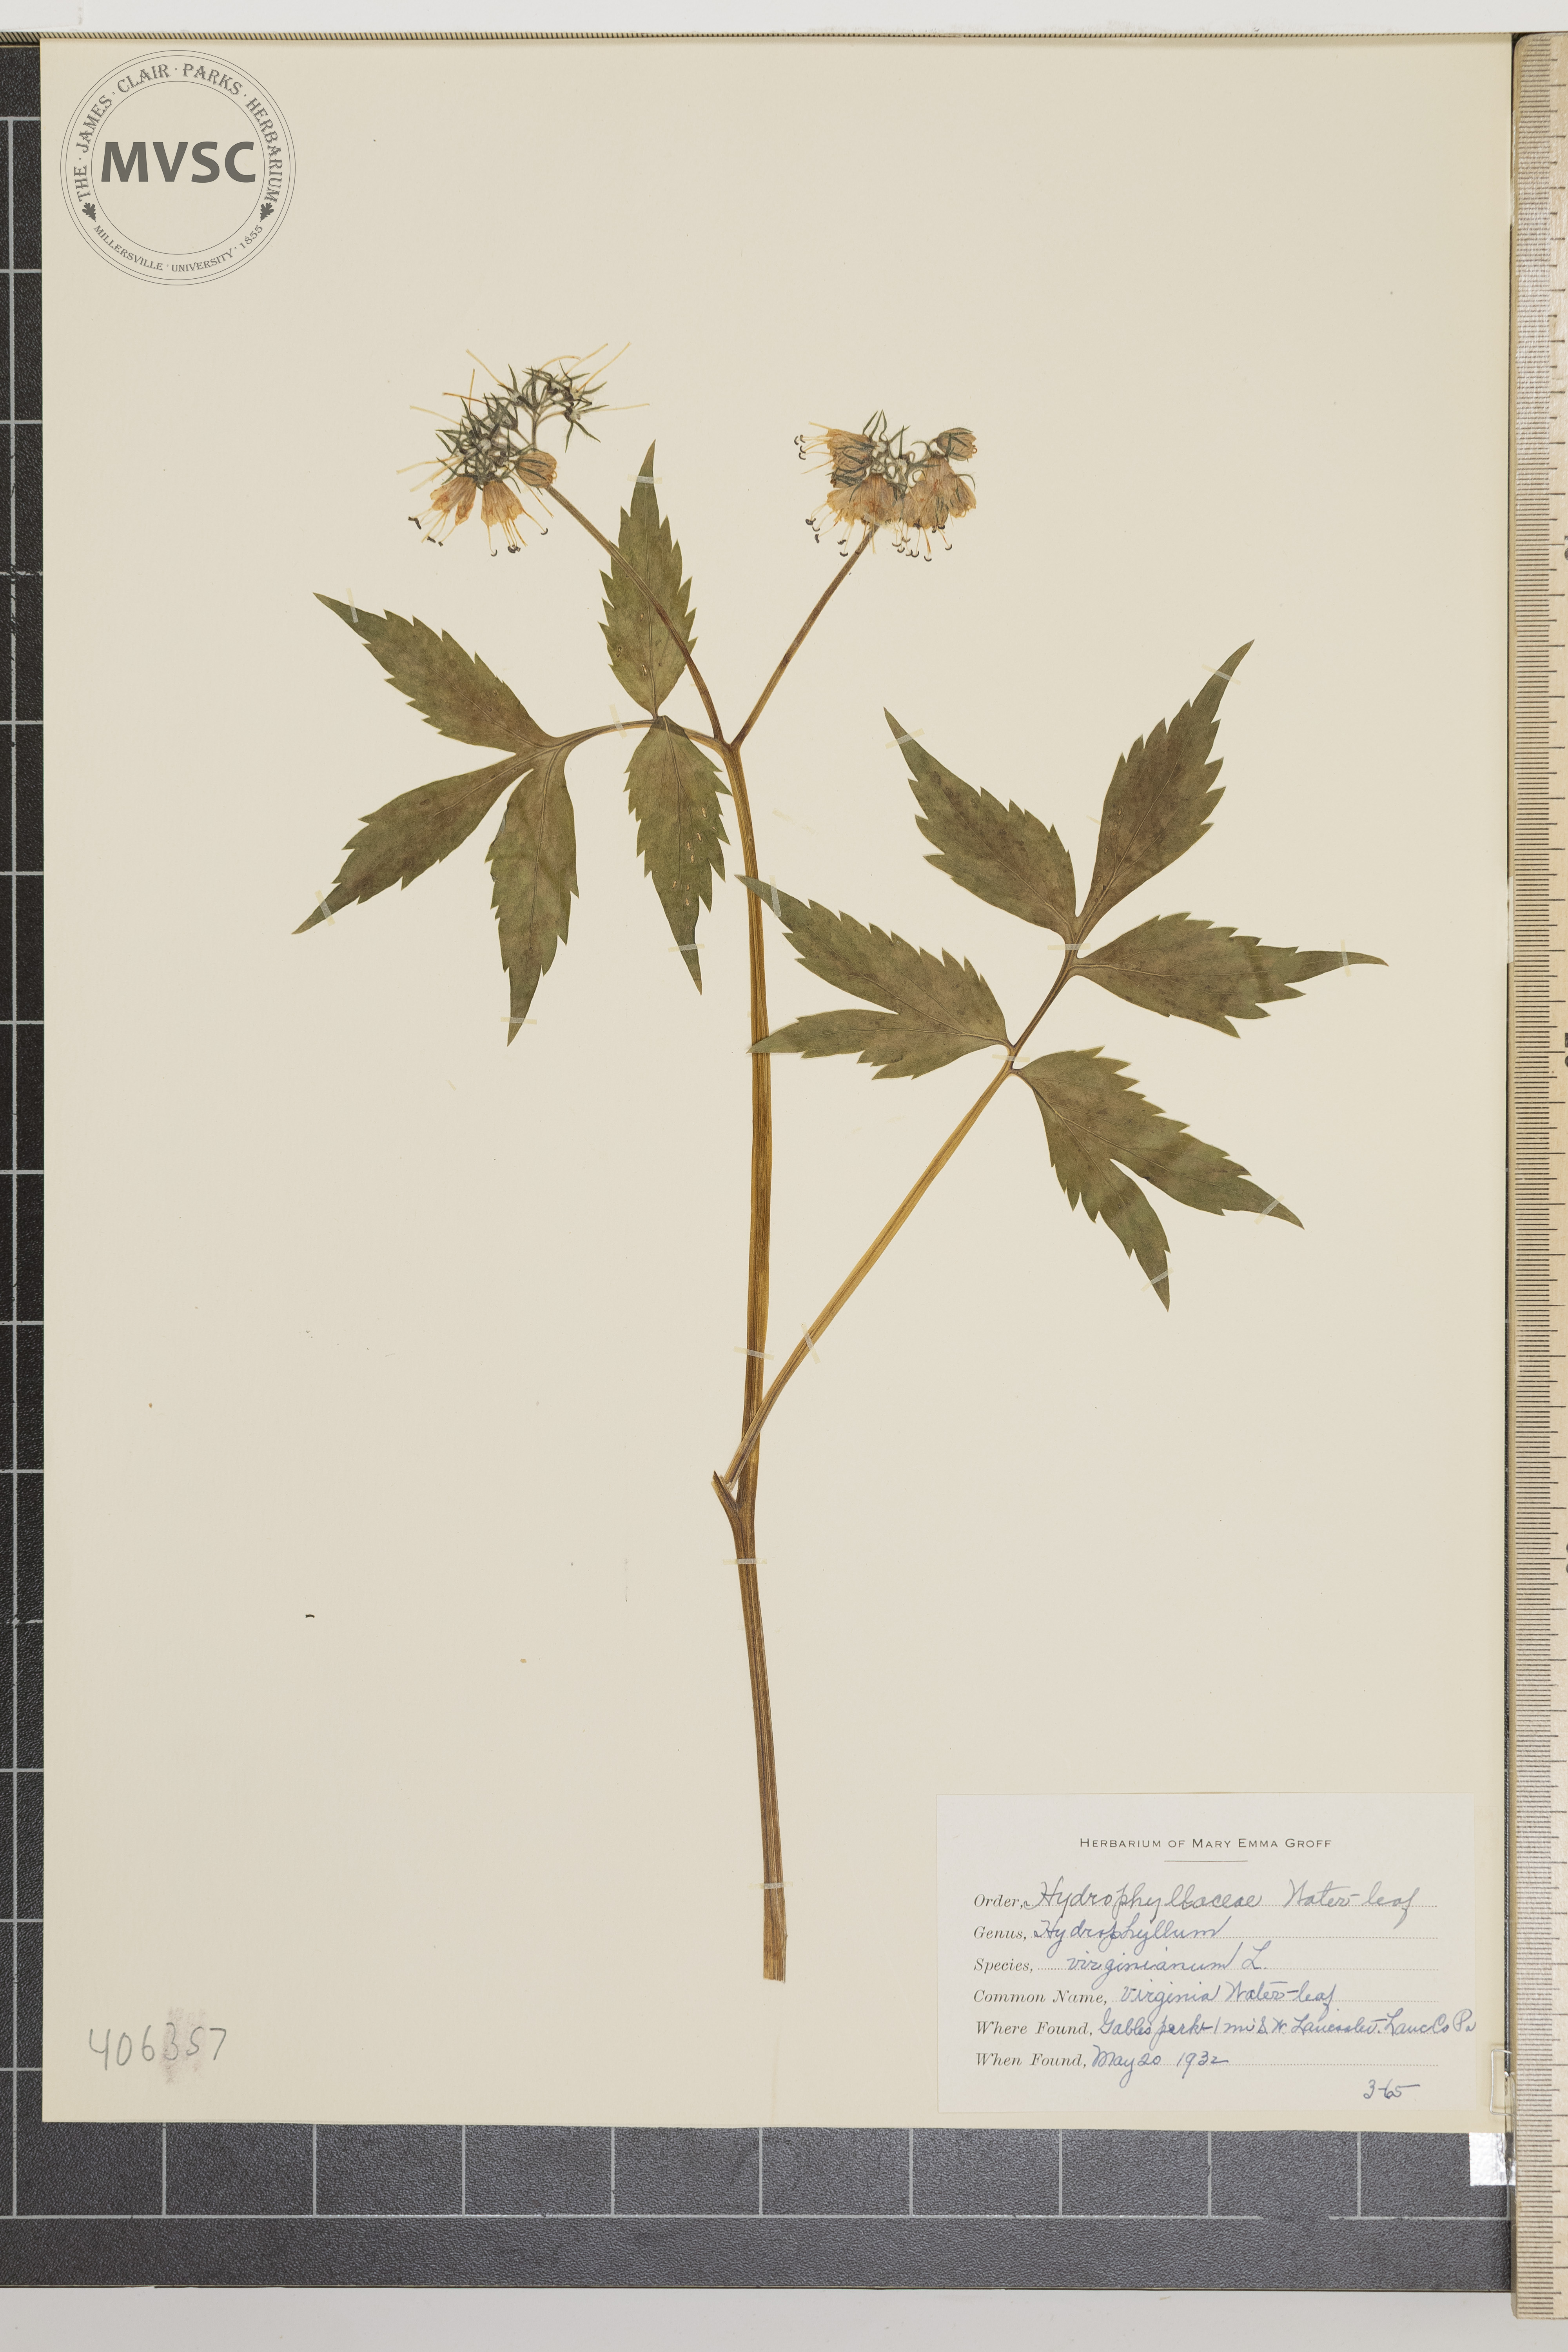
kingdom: Plantae
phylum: Tracheophyta
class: Magnoliopsida
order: Boraginales
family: Hydrophyllaceae
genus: Hydrophyllum
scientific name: Hydrophyllum virginianum
